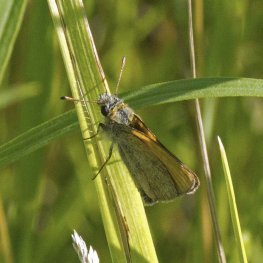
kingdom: Animalia
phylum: Arthropoda
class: Insecta
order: Lepidoptera
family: Hesperiidae
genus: Thymelicus
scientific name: Thymelicus lineola
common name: European Skipper
